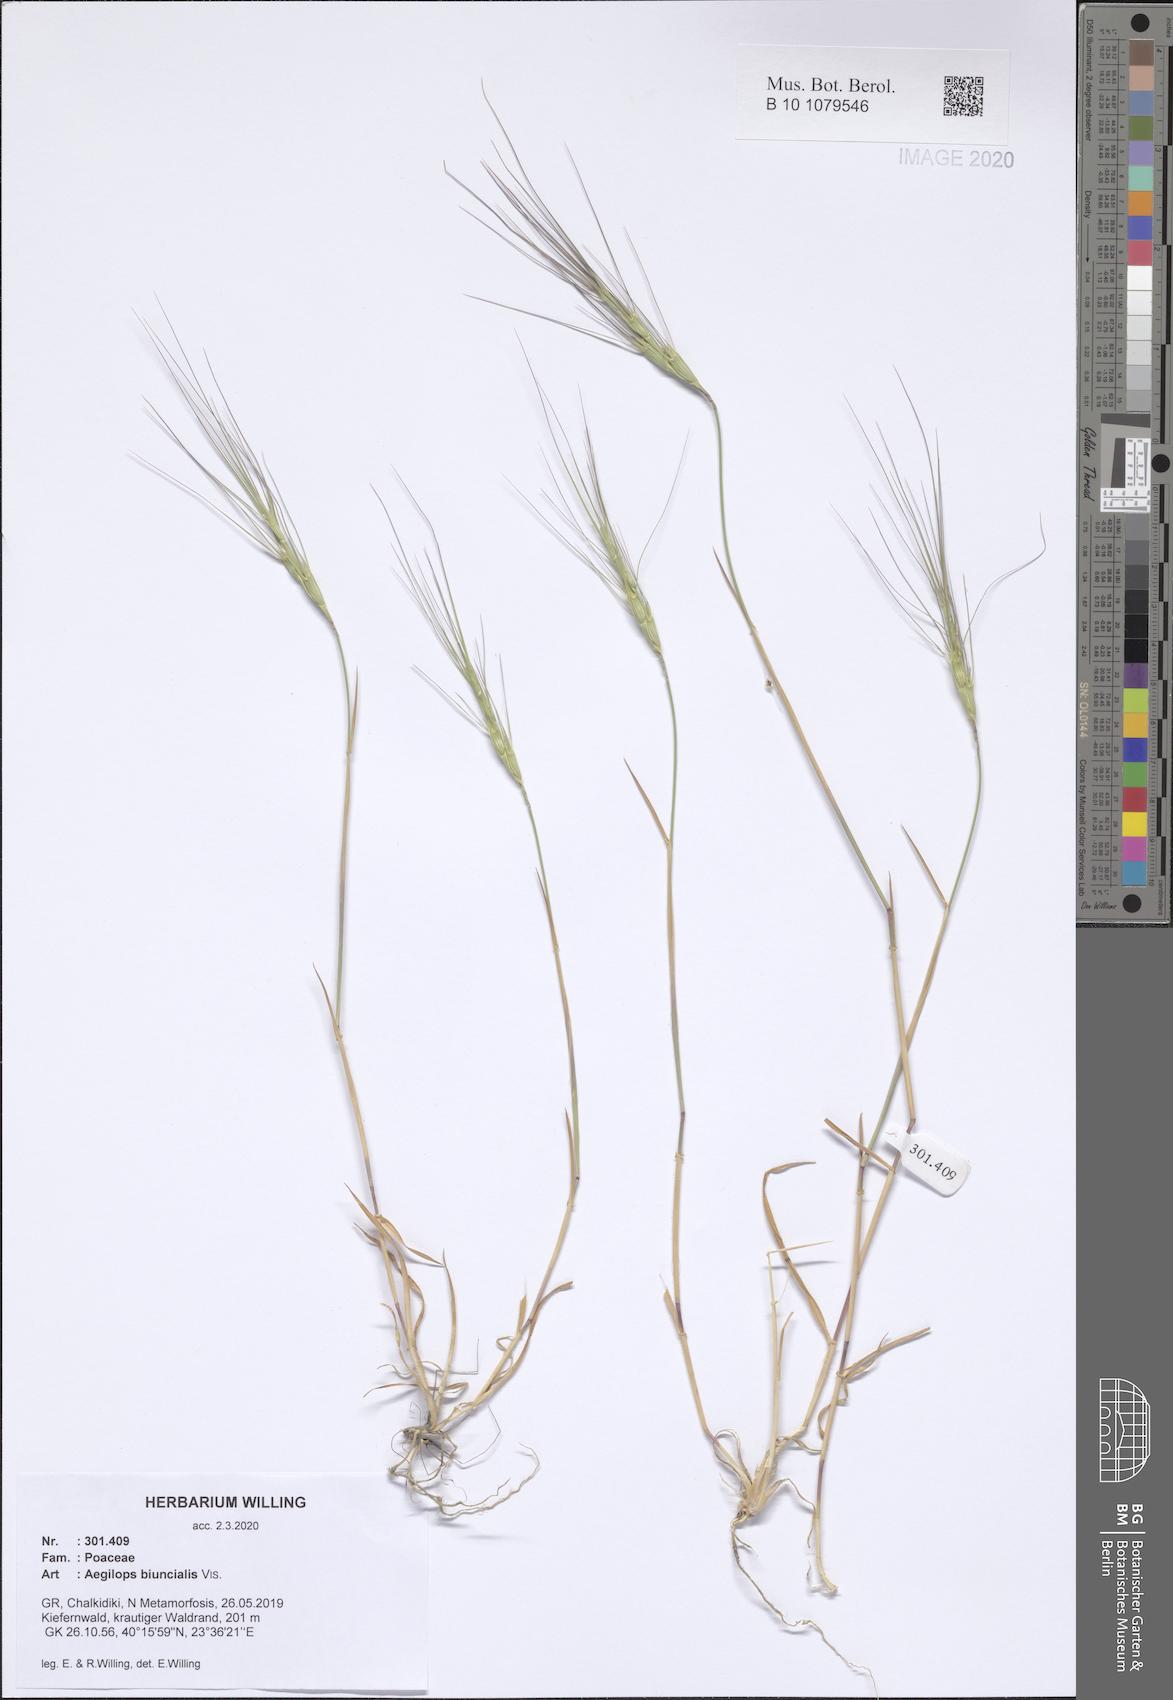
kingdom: Plantae
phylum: Tracheophyta
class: Liliopsida
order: Poales
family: Poaceae
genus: Aegilops
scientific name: Aegilops biuncialis
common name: Mediterranean aegilops
